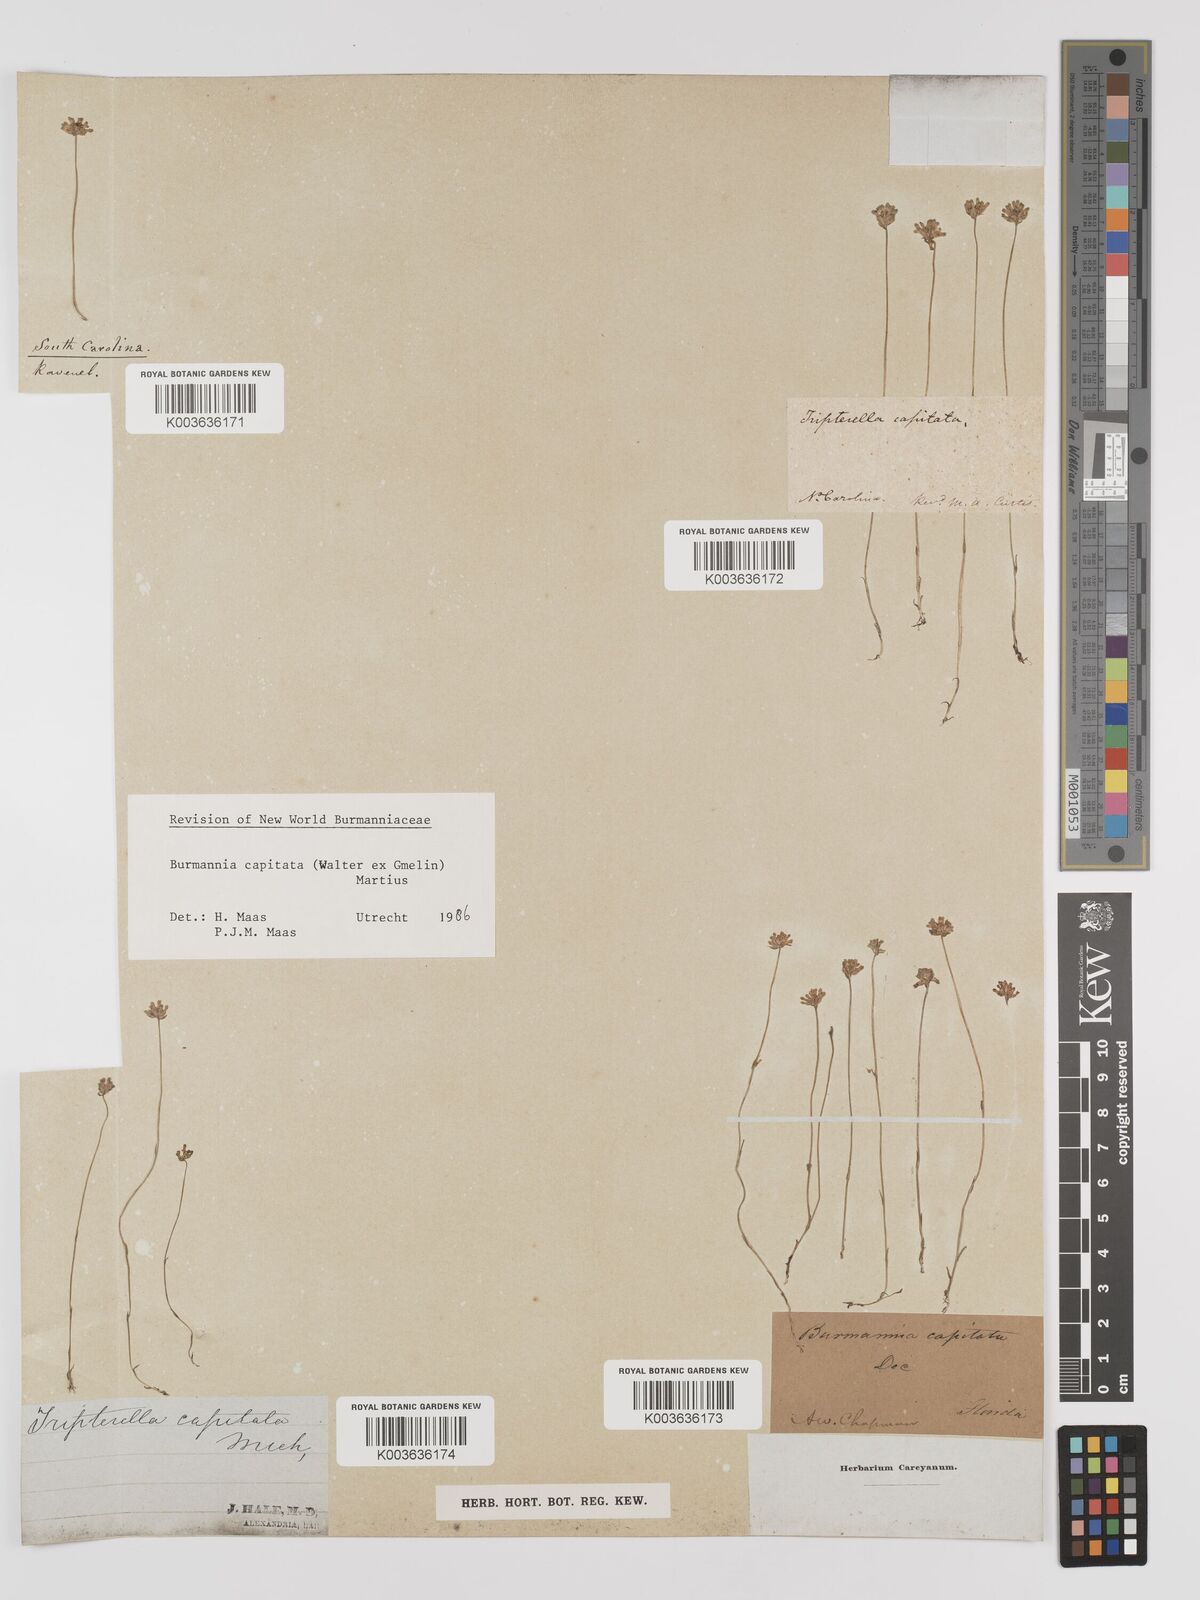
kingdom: Plantae
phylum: Tracheophyta
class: Liliopsida
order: Dioscoreales
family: Burmanniaceae
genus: Burmannia
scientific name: Burmannia capitata
